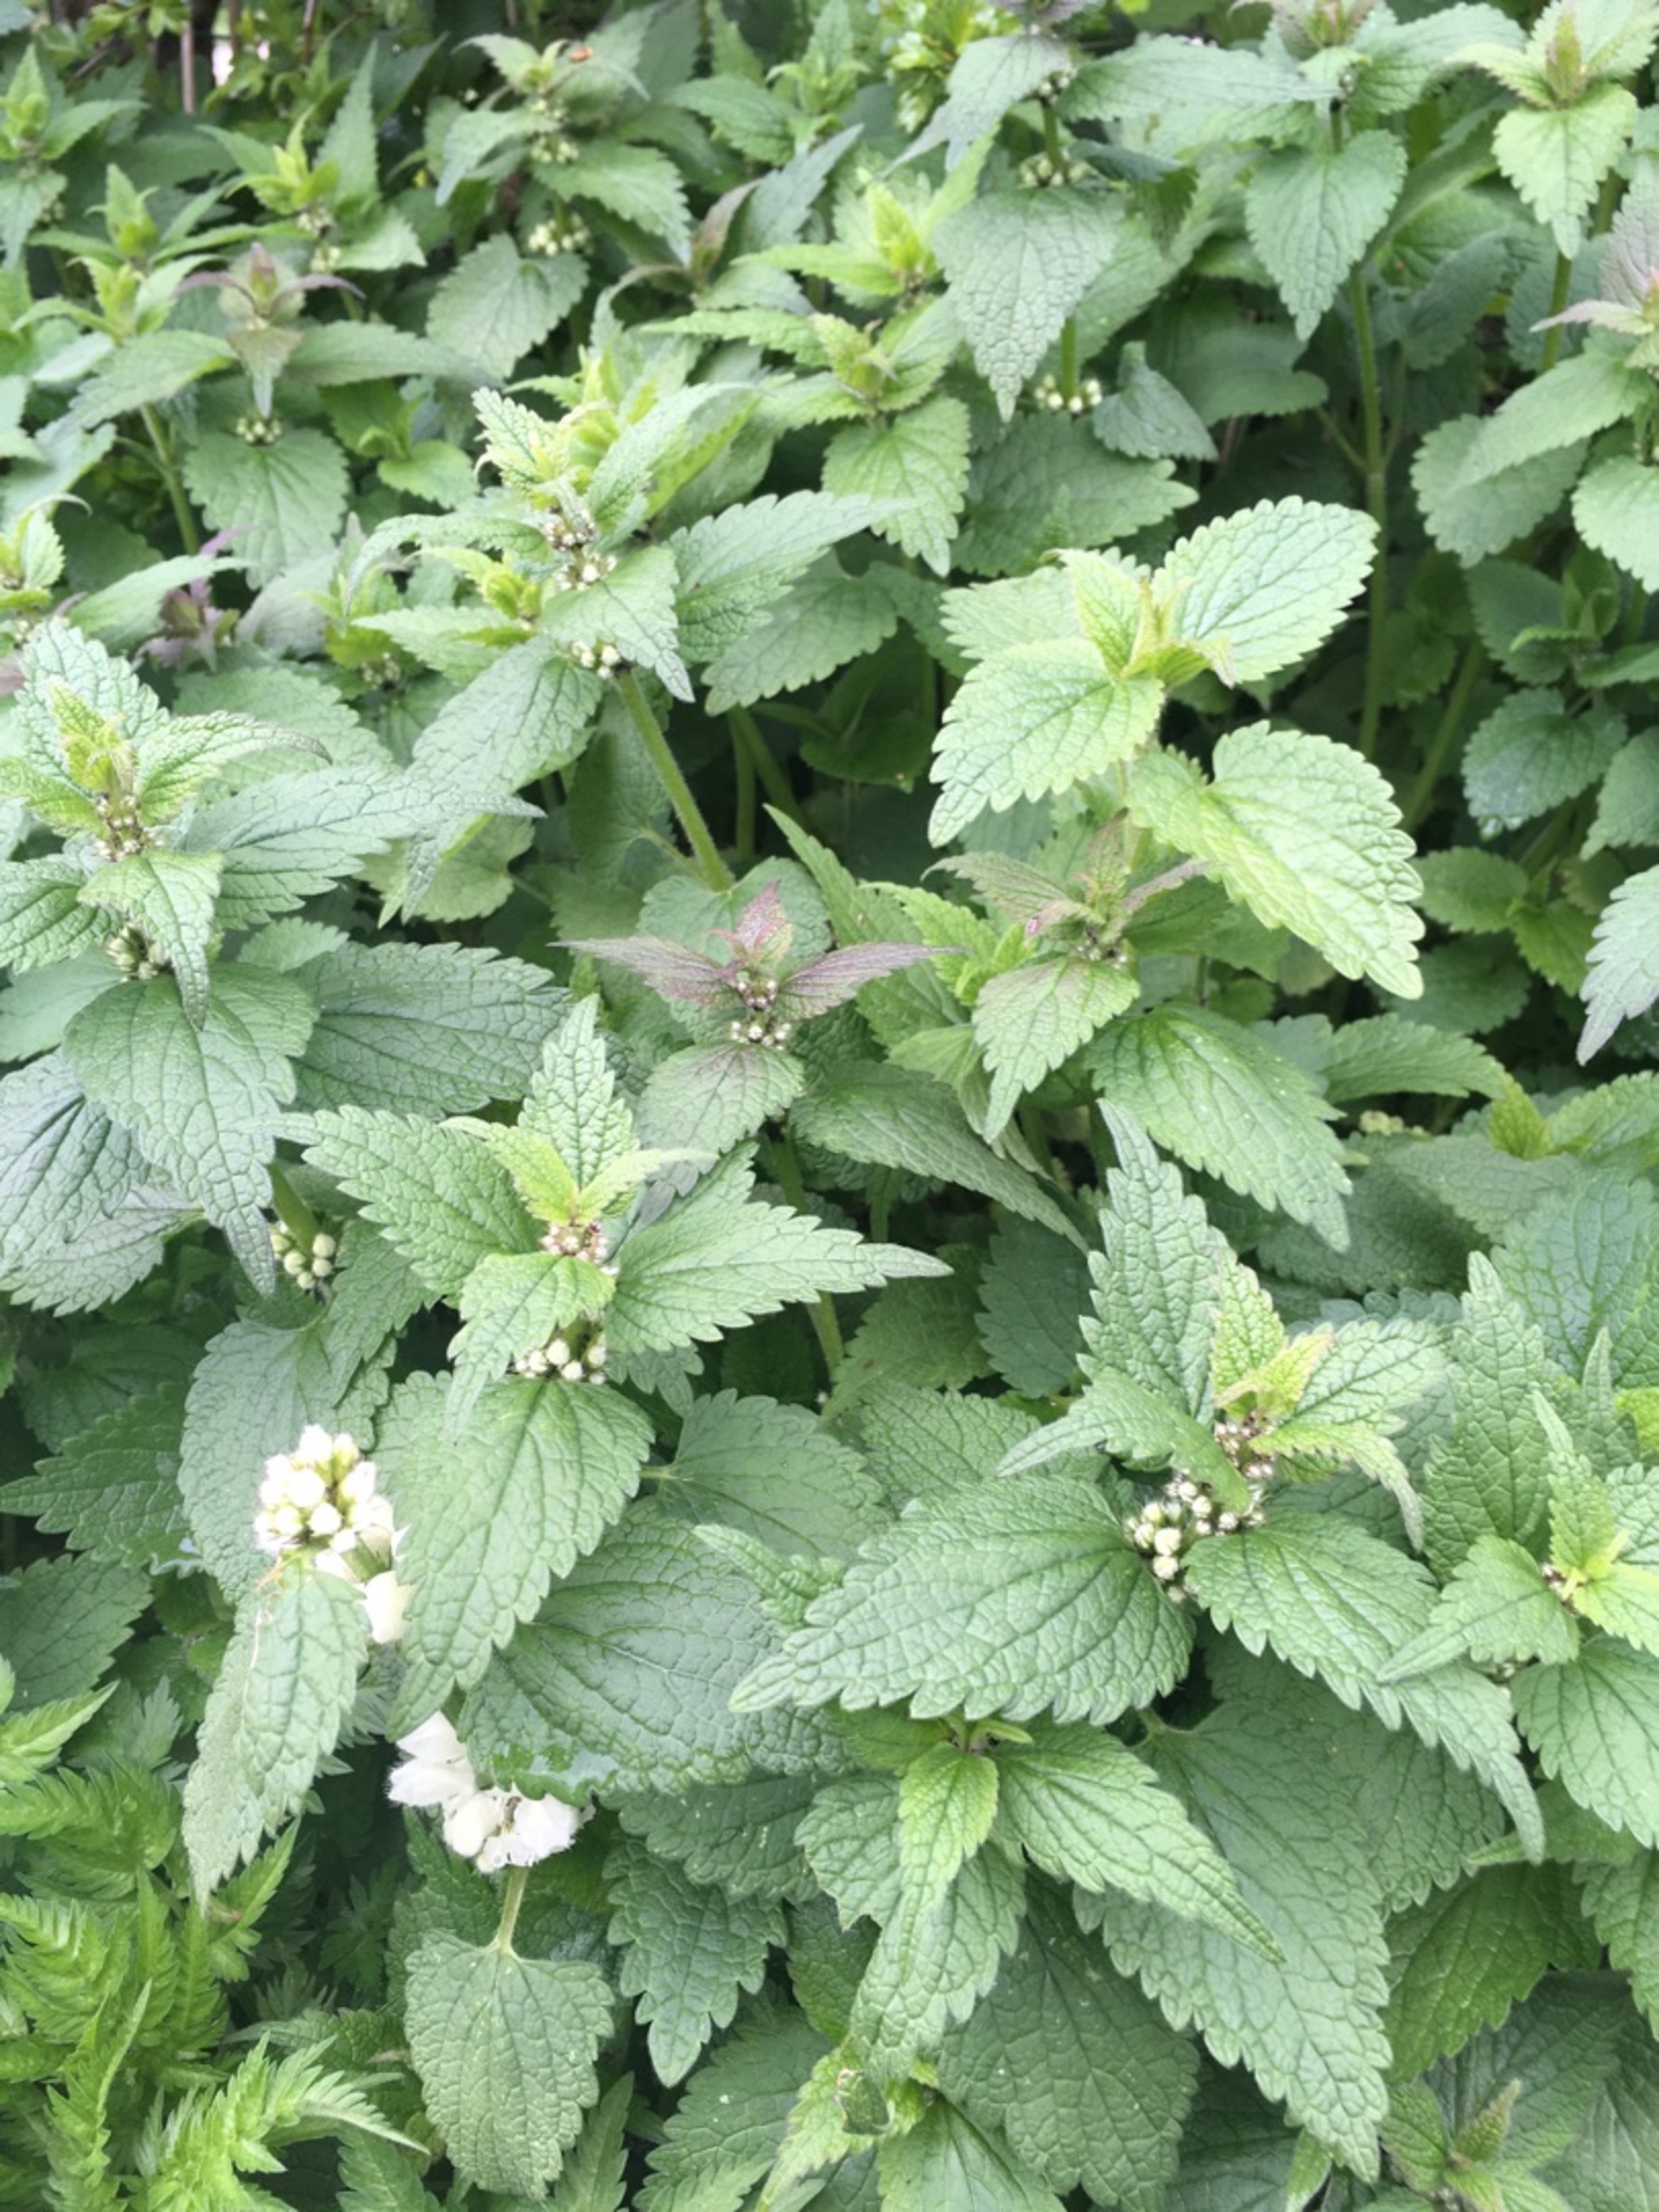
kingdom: Plantae
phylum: Tracheophyta
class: Magnoliopsida
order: Lamiales
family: Lamiaceae
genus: Lamium
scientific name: Lamium album
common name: Døvnælde
